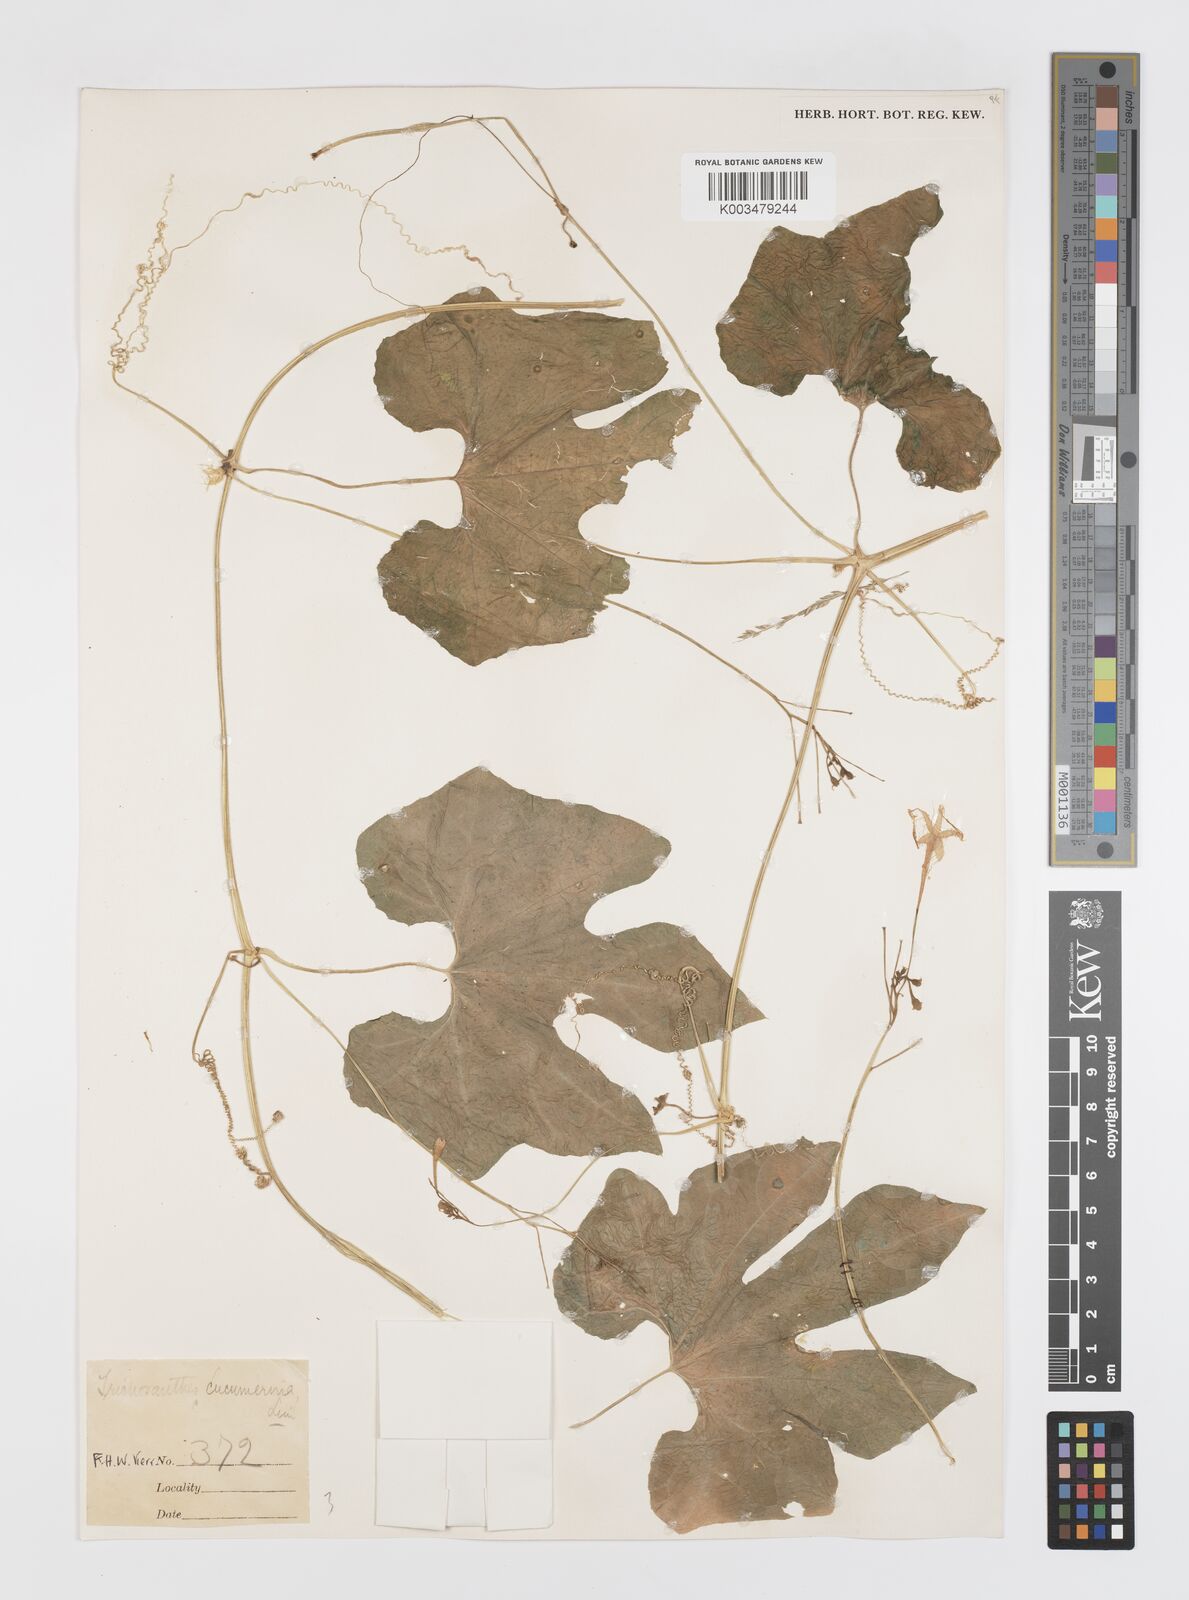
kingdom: Plantae
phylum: Tracheophyta
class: Magnoliopsida
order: Cucurbitales
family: Cucurbitaceae
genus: Trichosanthes
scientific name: Trichosanthes cucumerina
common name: Snakegourd
